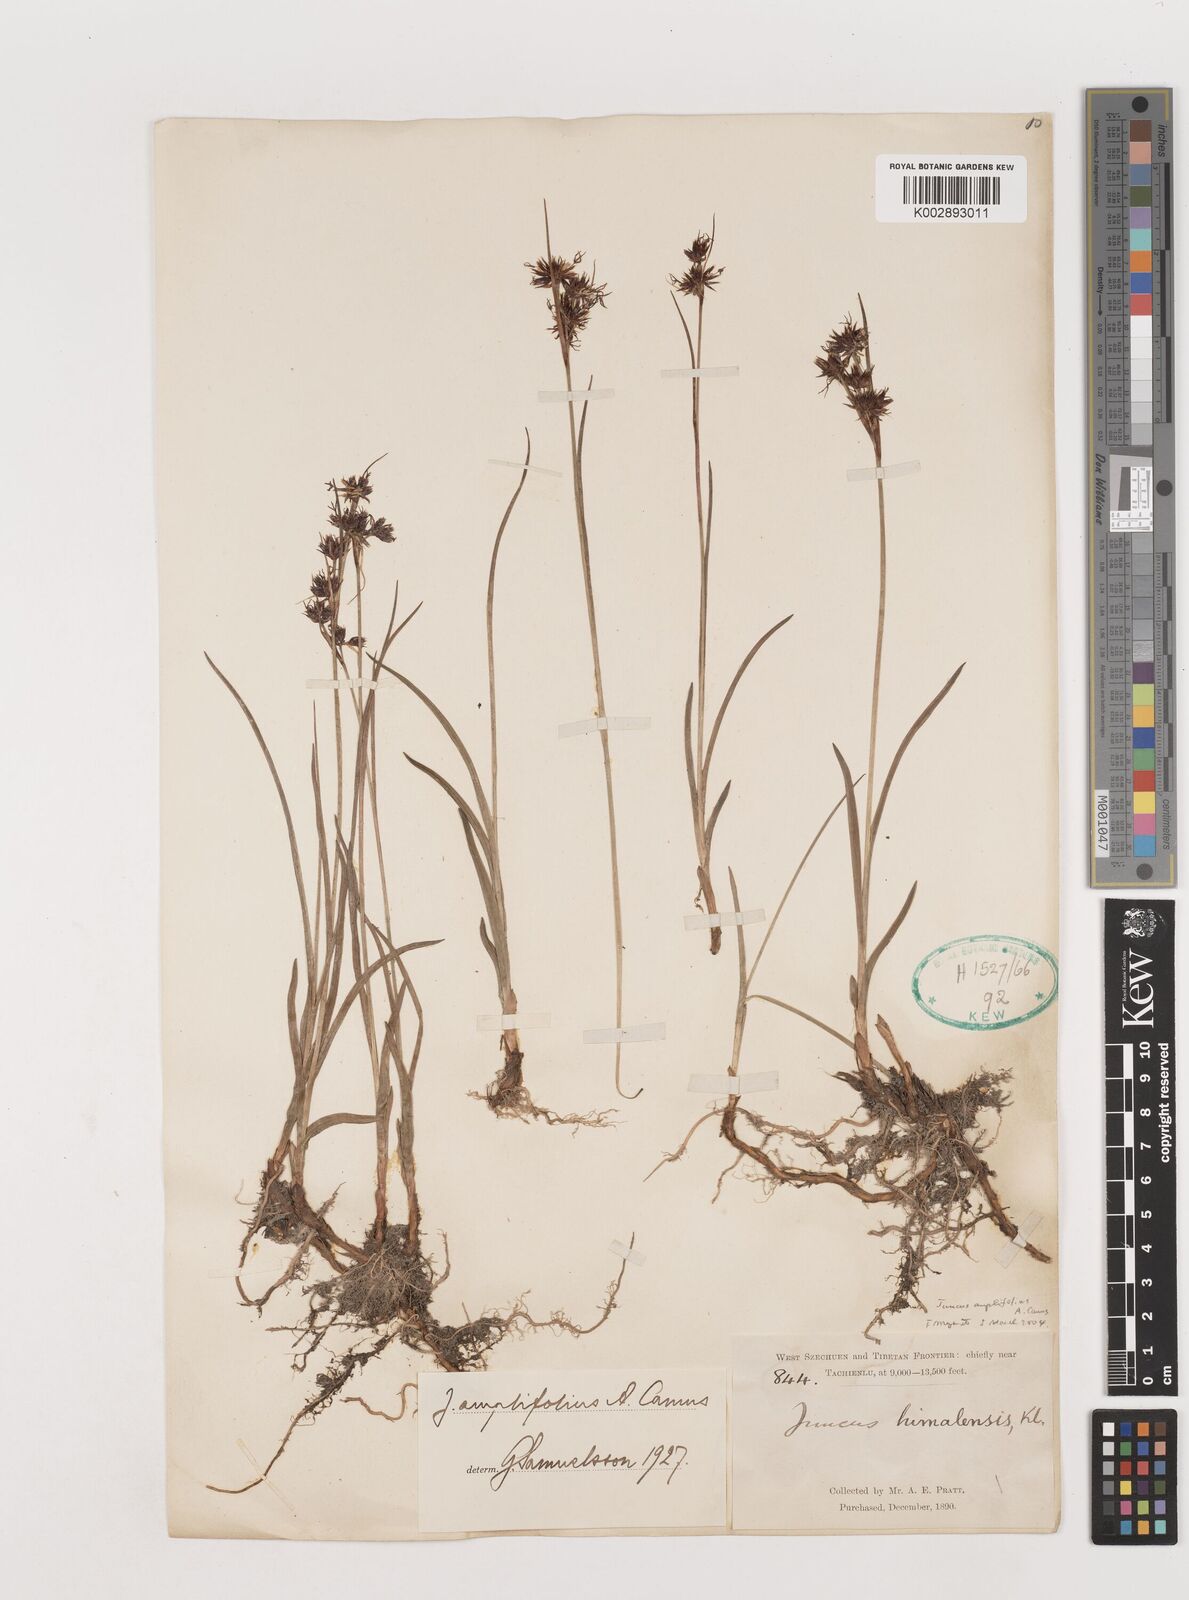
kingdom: Plantae
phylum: Tracheophyta
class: Liliopsida
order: Poales
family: Juncaceae
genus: Juncus
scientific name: Juncus amplifolius
